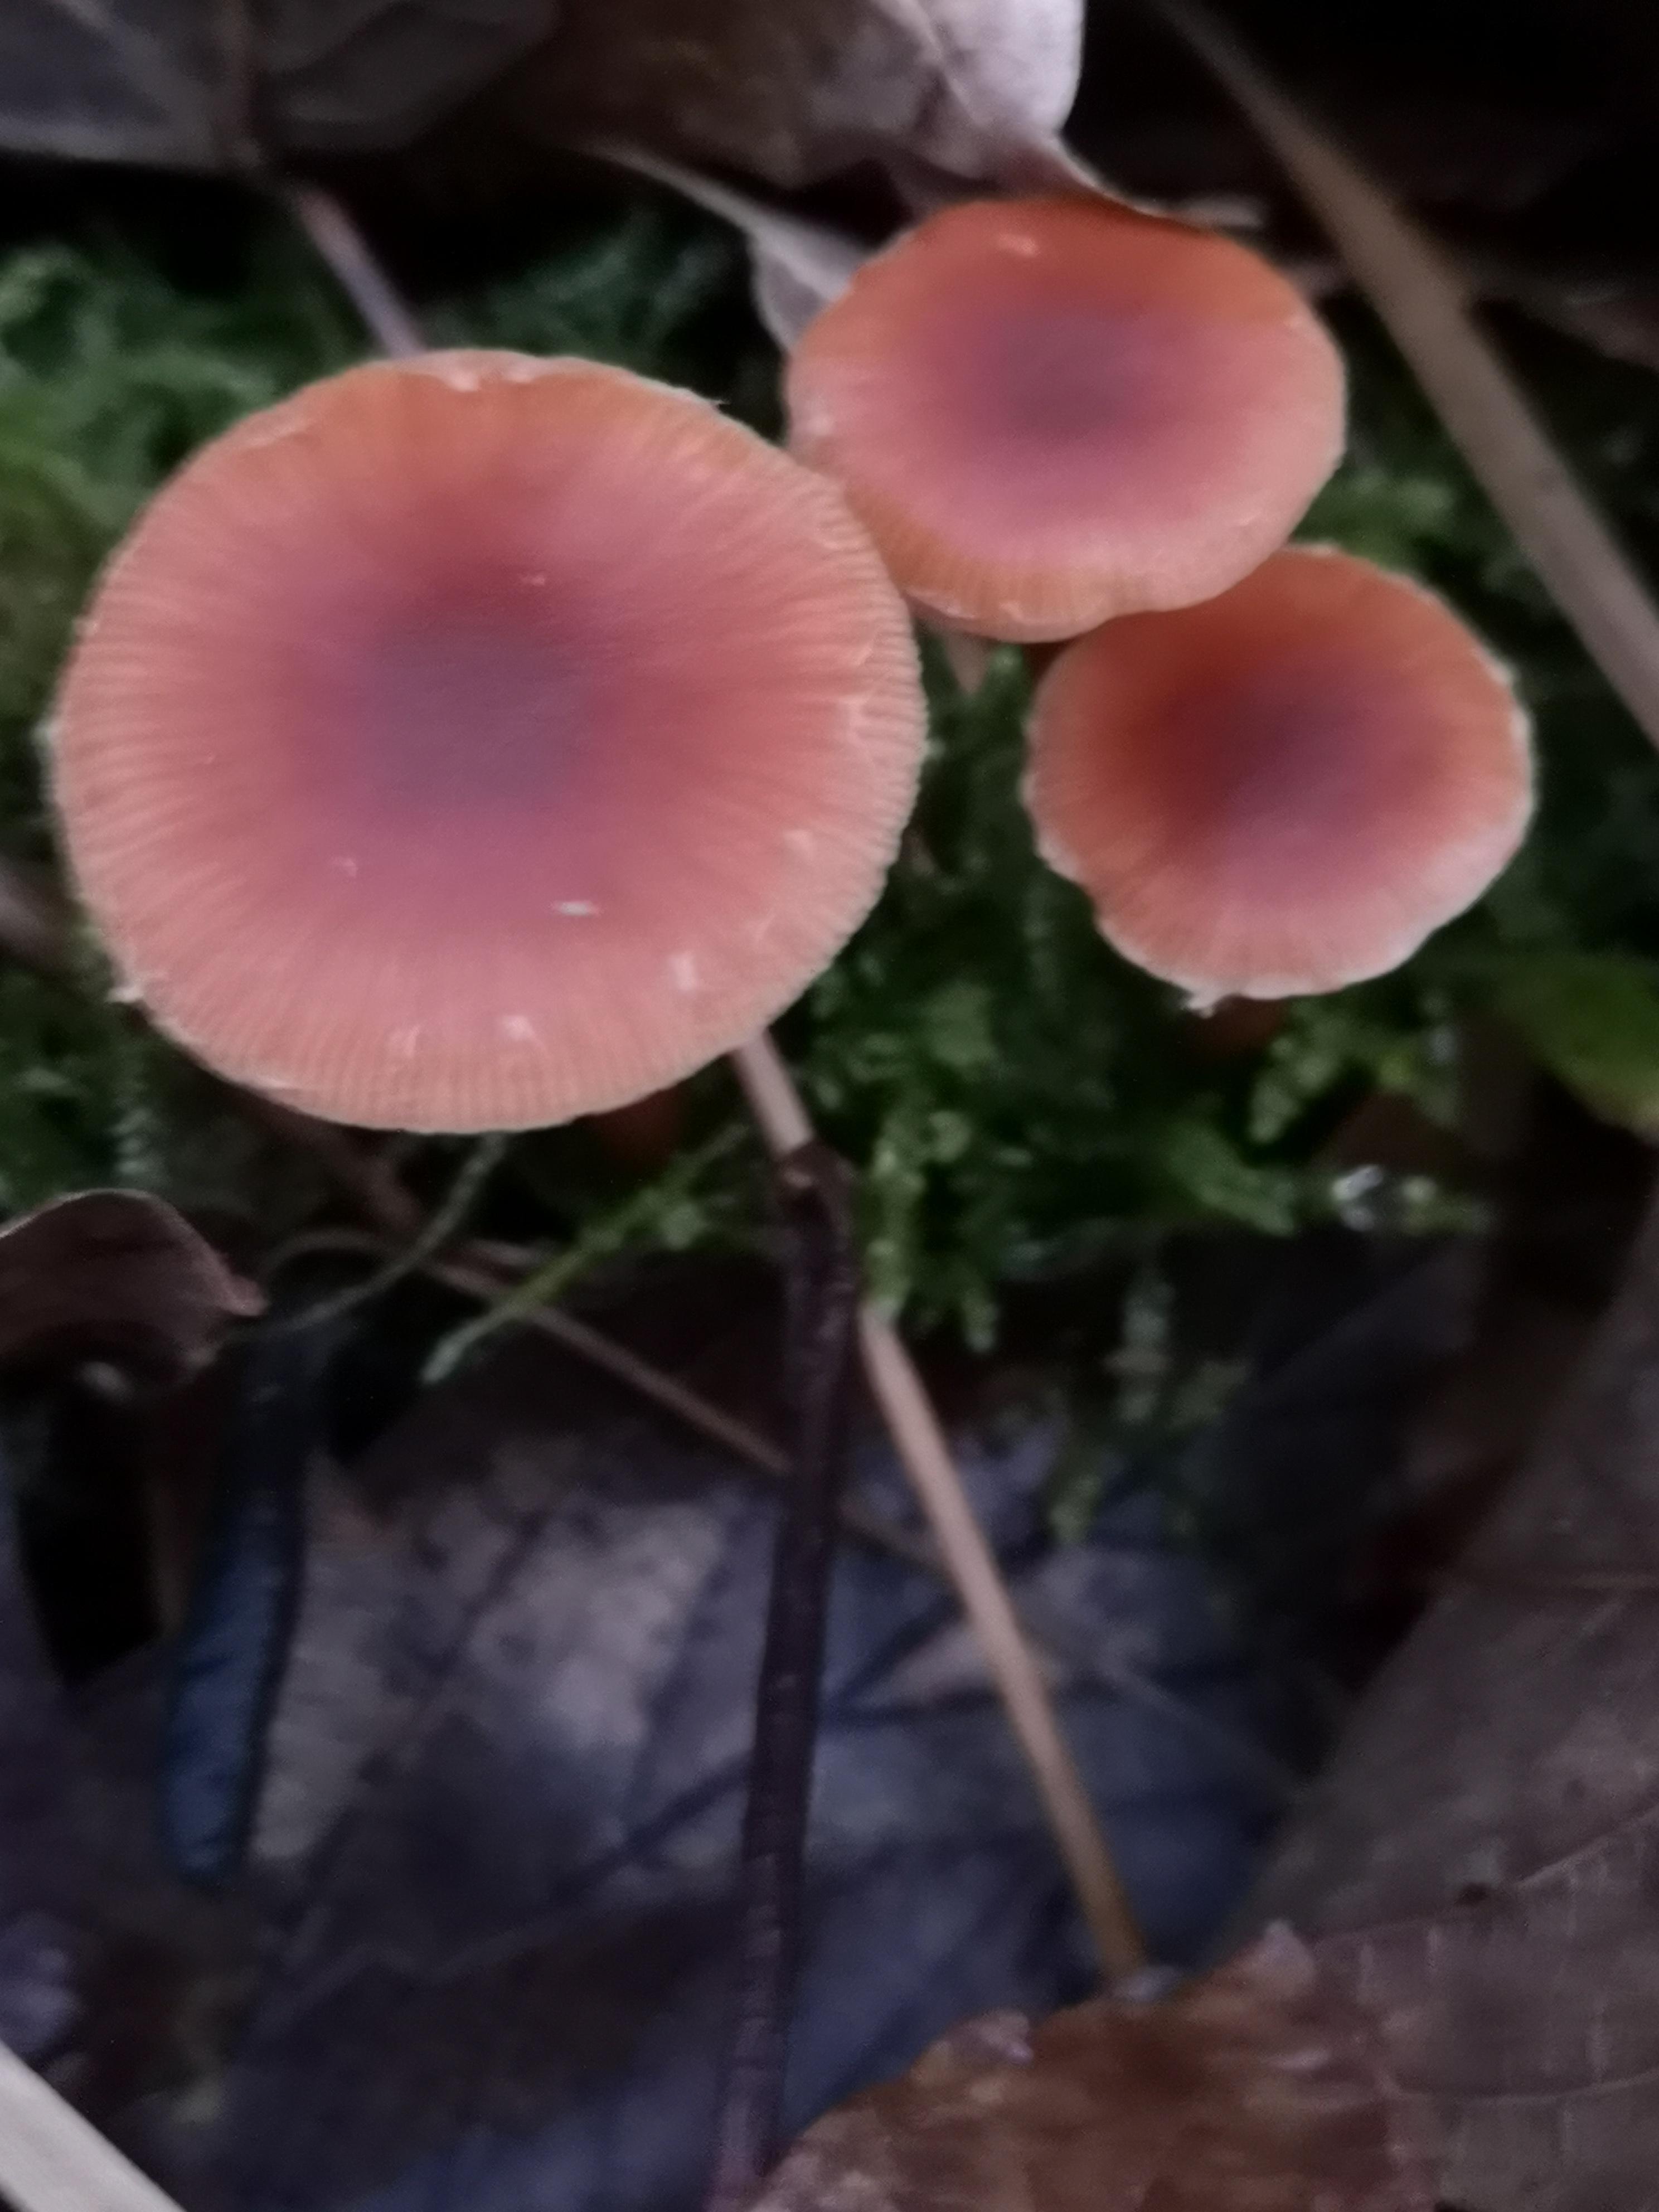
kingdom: Fungi
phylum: Basidiomycota
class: Agaricomycetes
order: Agaricales
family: Tubariaceae
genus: Tubaria
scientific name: Tubaria furfuracea
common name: kliddet fnughat
